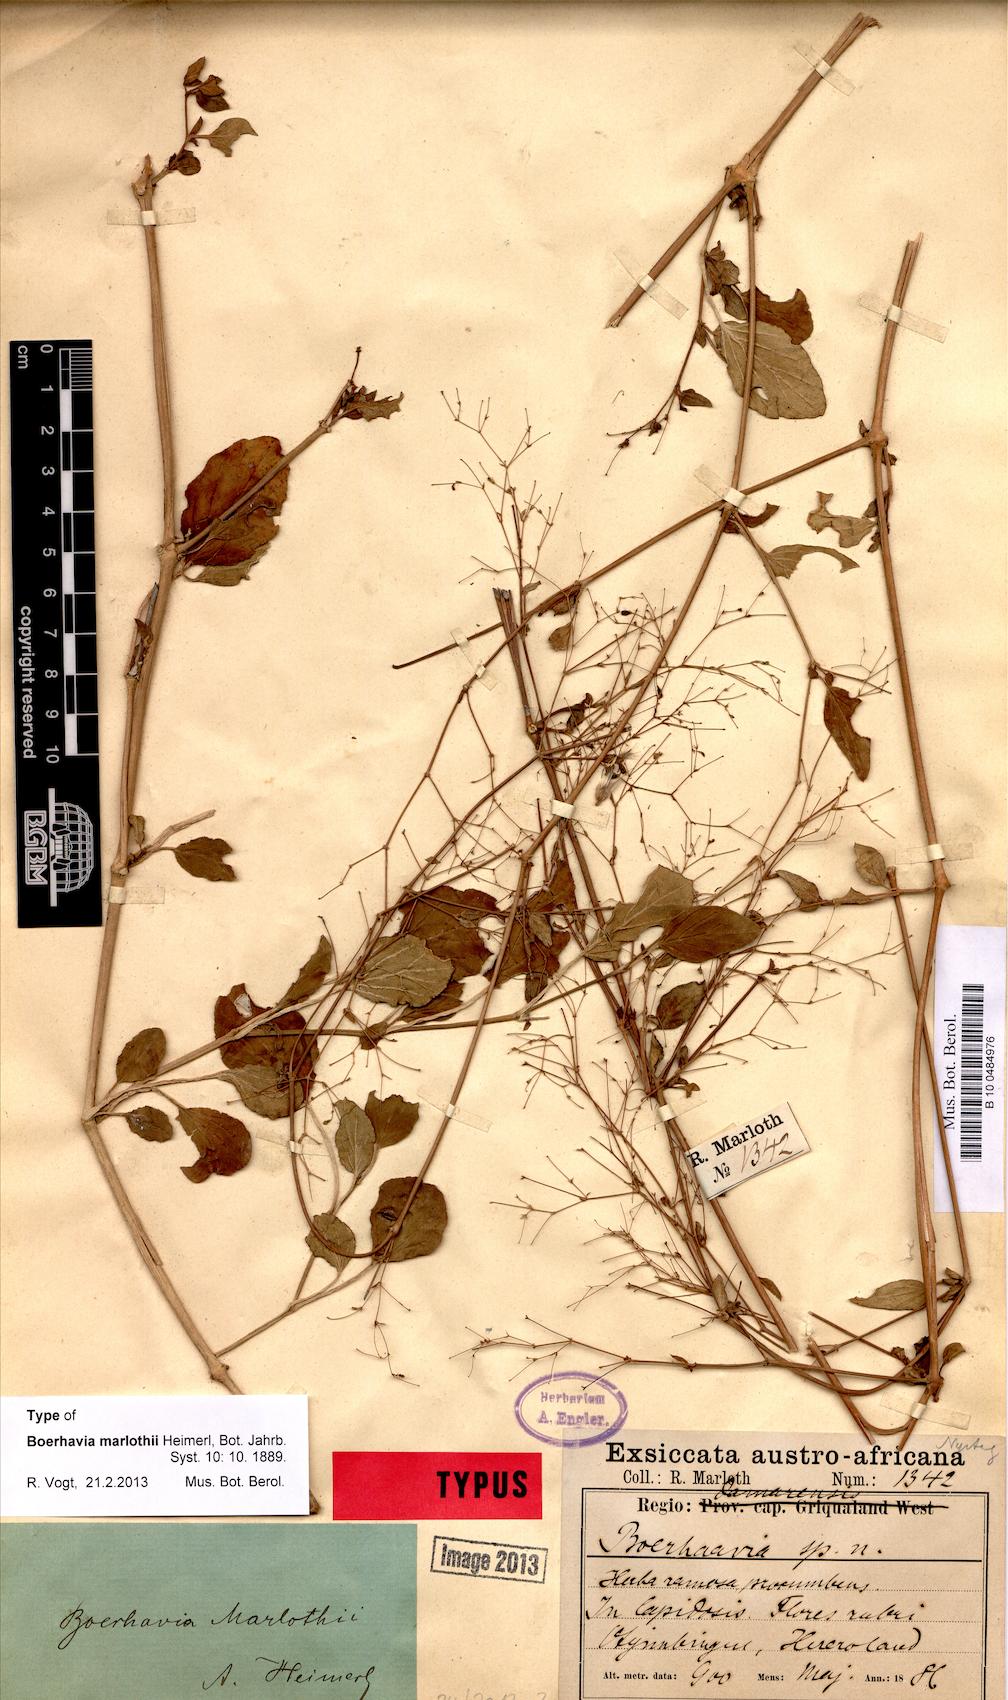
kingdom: Plantae
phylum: Tracheophyta
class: Magnoliopsida
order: Caryophyllales
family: Nyctaginaceae
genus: Boerhavia
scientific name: Boerhavia coccinea
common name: Scarlet spiderling
